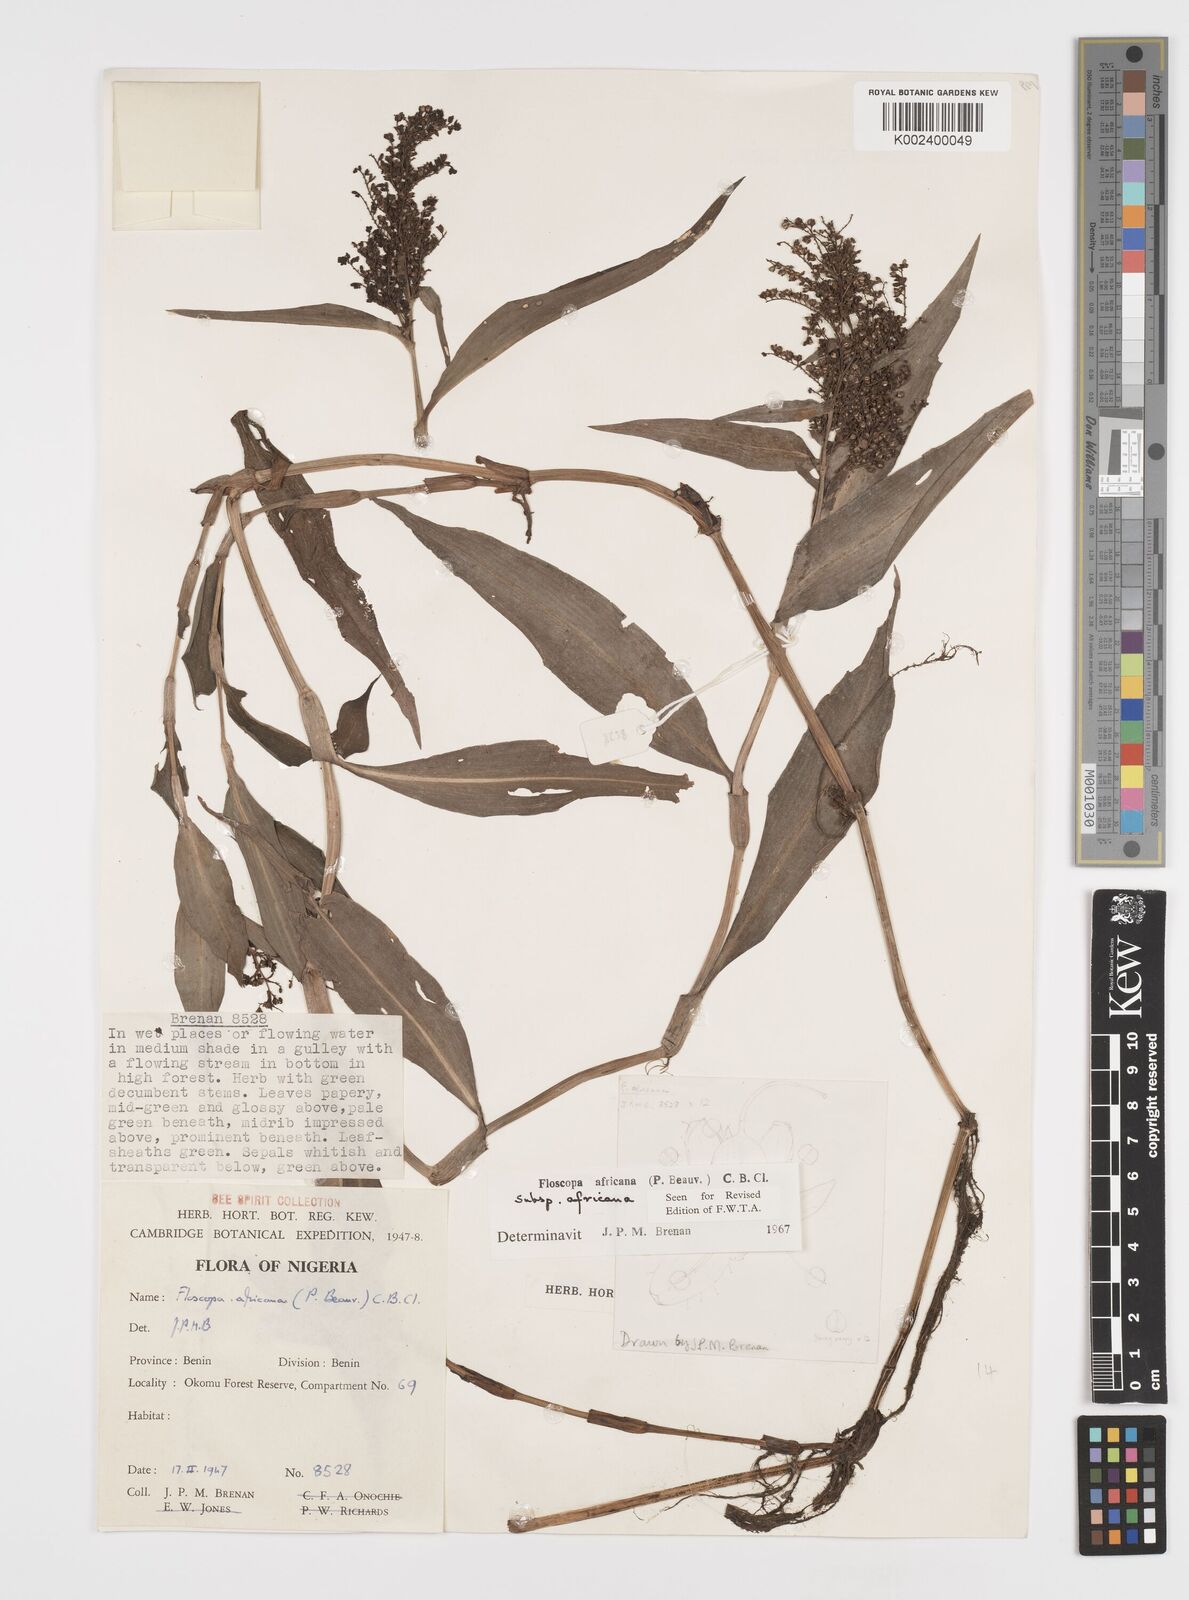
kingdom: Plantae
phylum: Tracheophyta
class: Liliopsida
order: Commelinales
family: Commelinaceae
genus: Floscopa
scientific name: Floscopa africana
